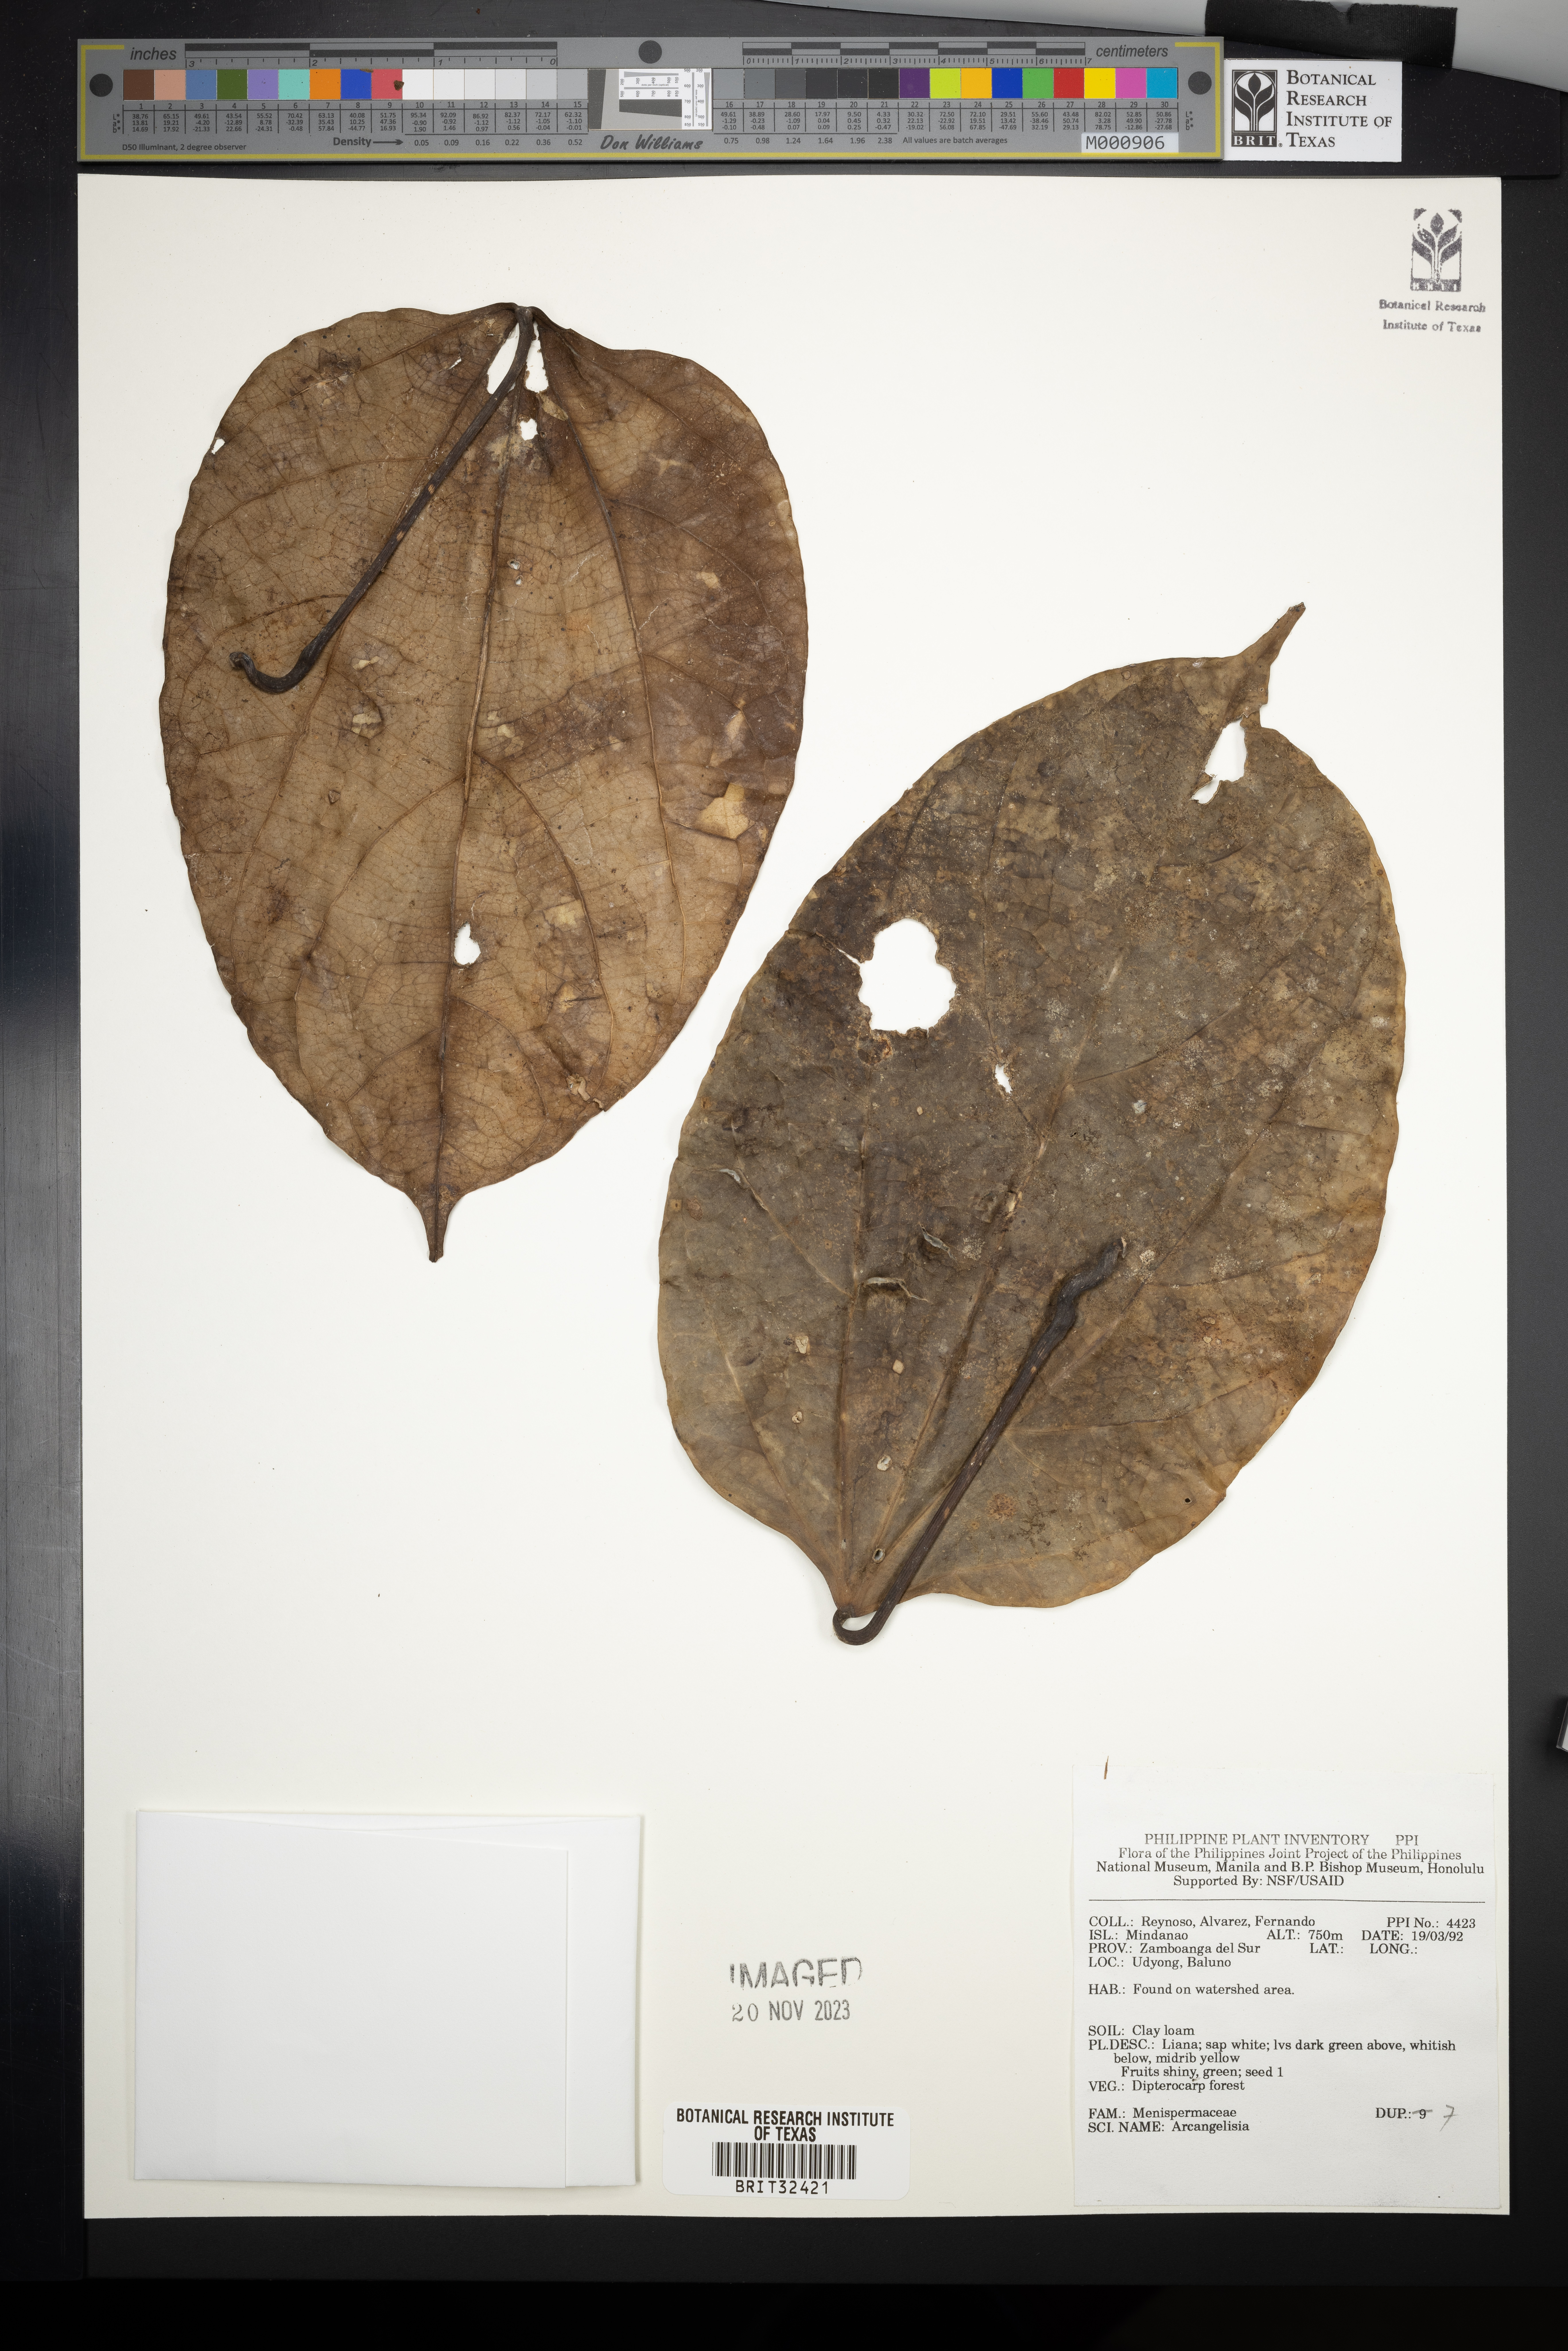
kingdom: Plantae
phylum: Tracheophyta
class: Magnoliopsida
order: Ranunculales
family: Menispermaceae
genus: Arcangelisia
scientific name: Arcangelisia
